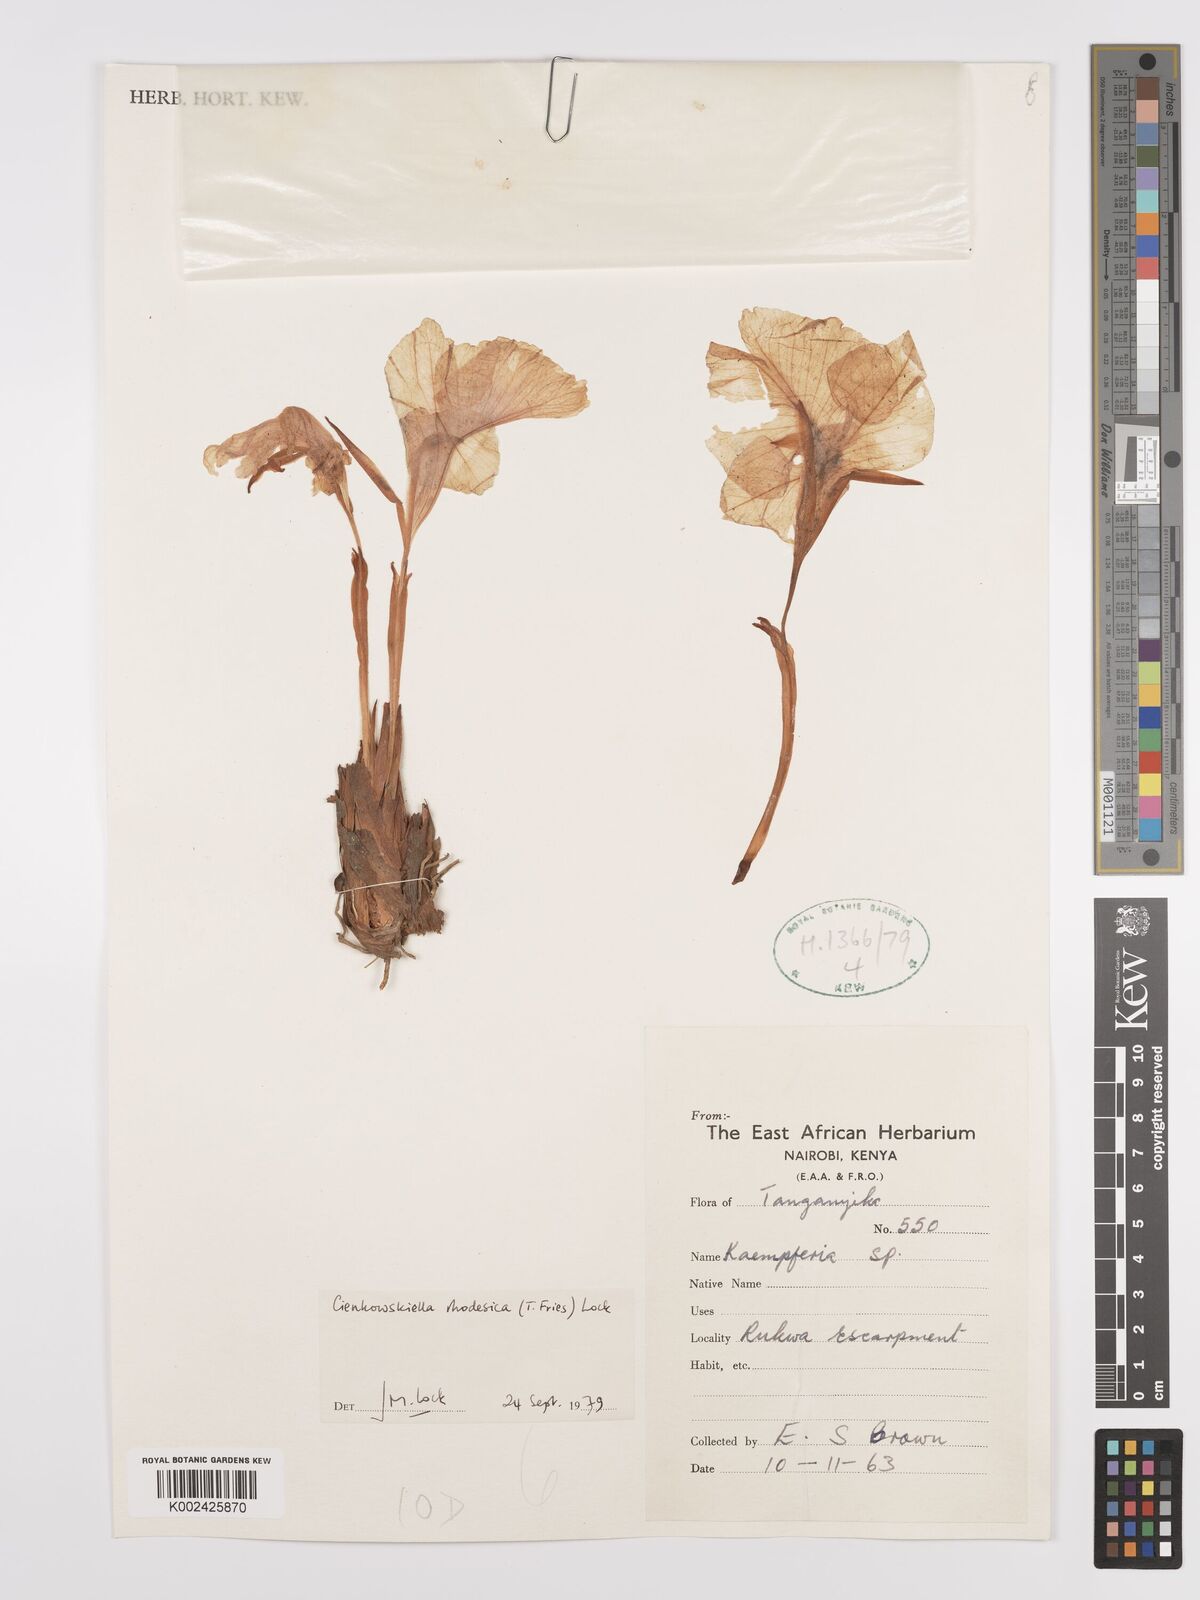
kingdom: Plantae
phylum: Tracheophyta
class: Liliopsida
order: Zingiberales
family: Zingiberaceae
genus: Siphonochilus
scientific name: Siphonochilus rhodesicus
